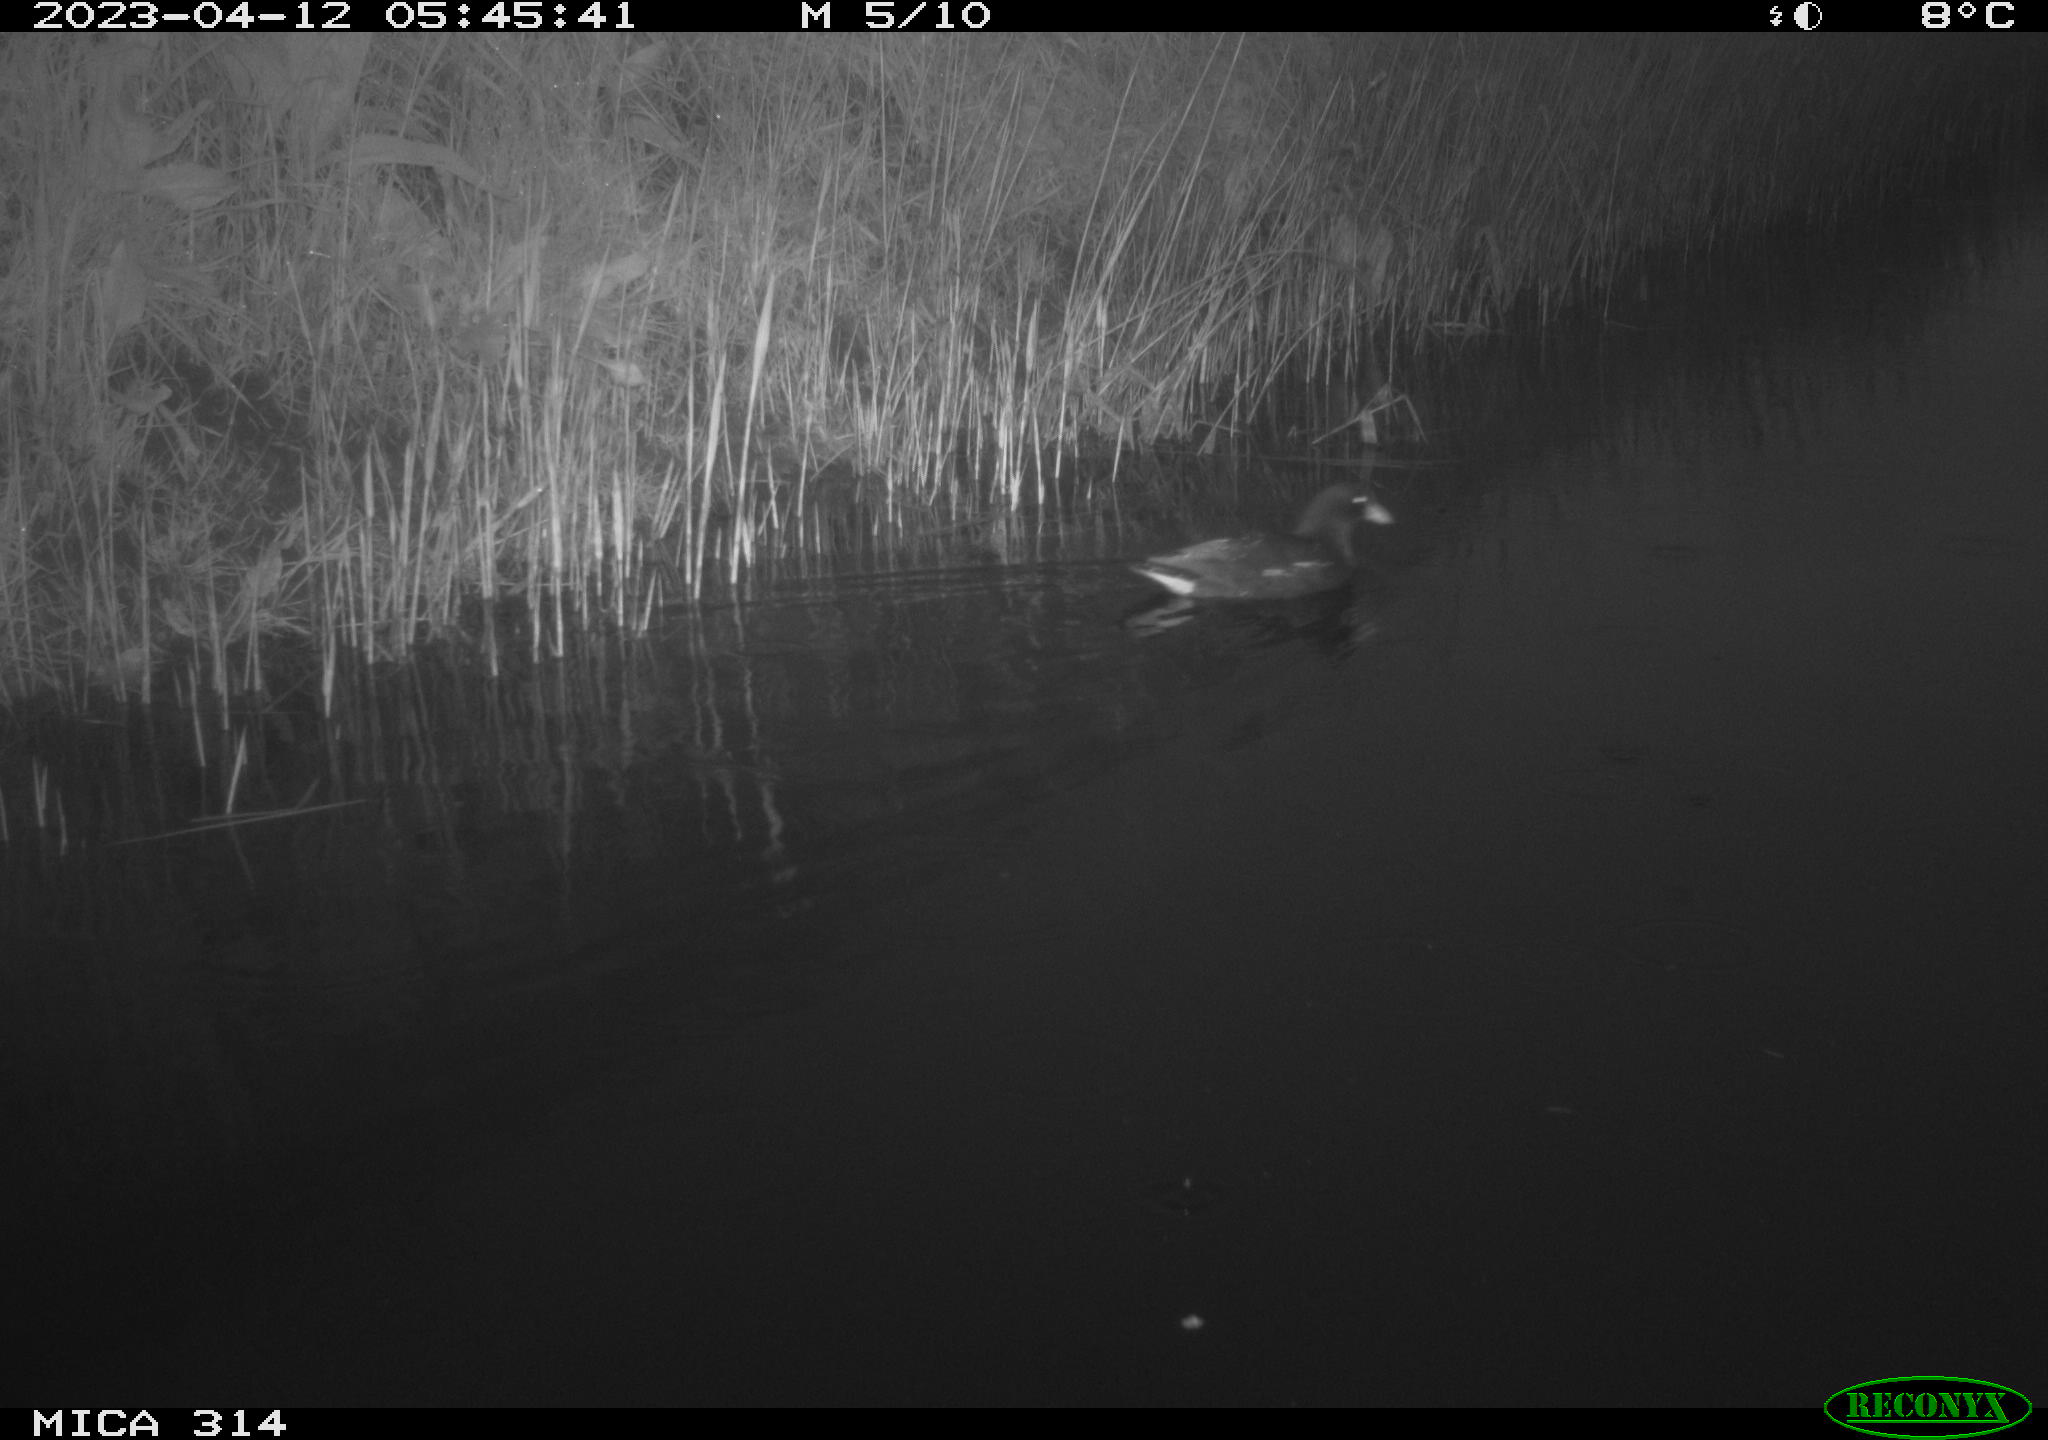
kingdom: Animalia
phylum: Chordata
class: Aves
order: Gruiformes
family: Rallidae
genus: Gallinula
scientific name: Gallinula chloropus
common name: Common moorhen
